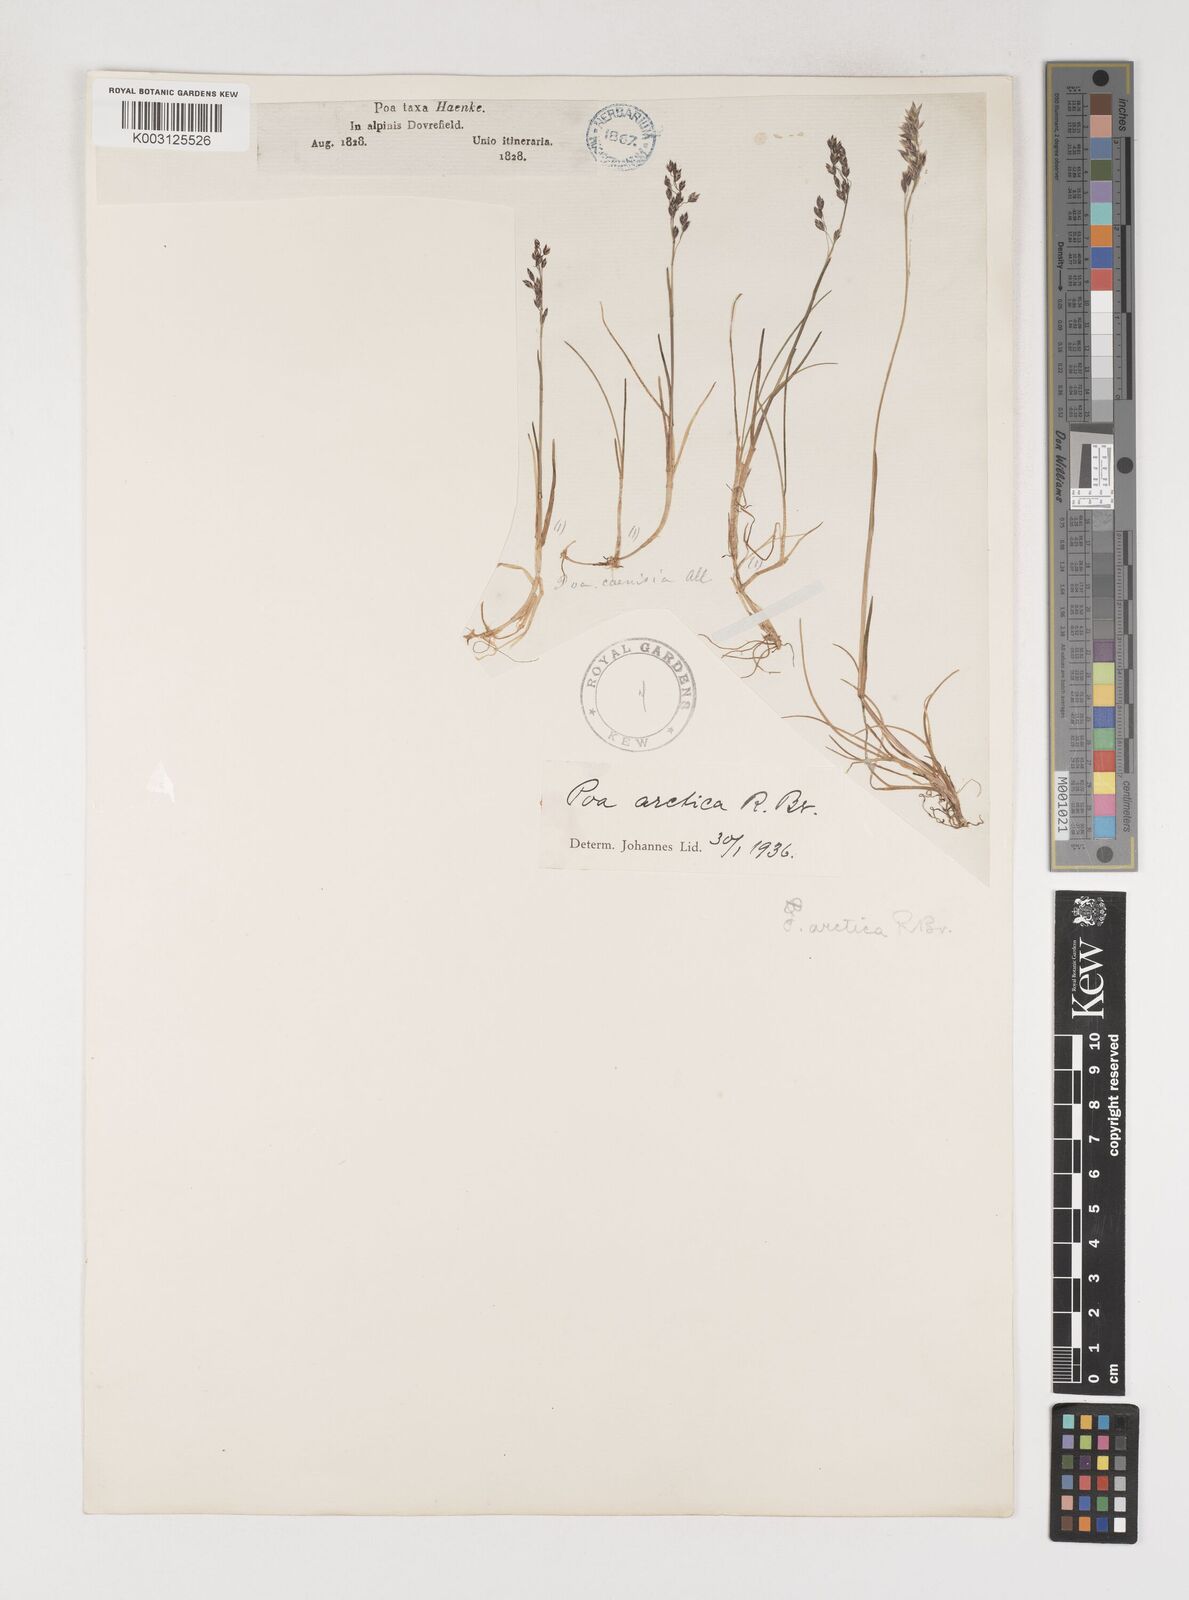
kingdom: Plantae
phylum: Tracheophyta
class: Liliopsida
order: Poales
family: Poaceae
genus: Poa
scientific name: Poa arctica
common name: Arctic bluegrass
